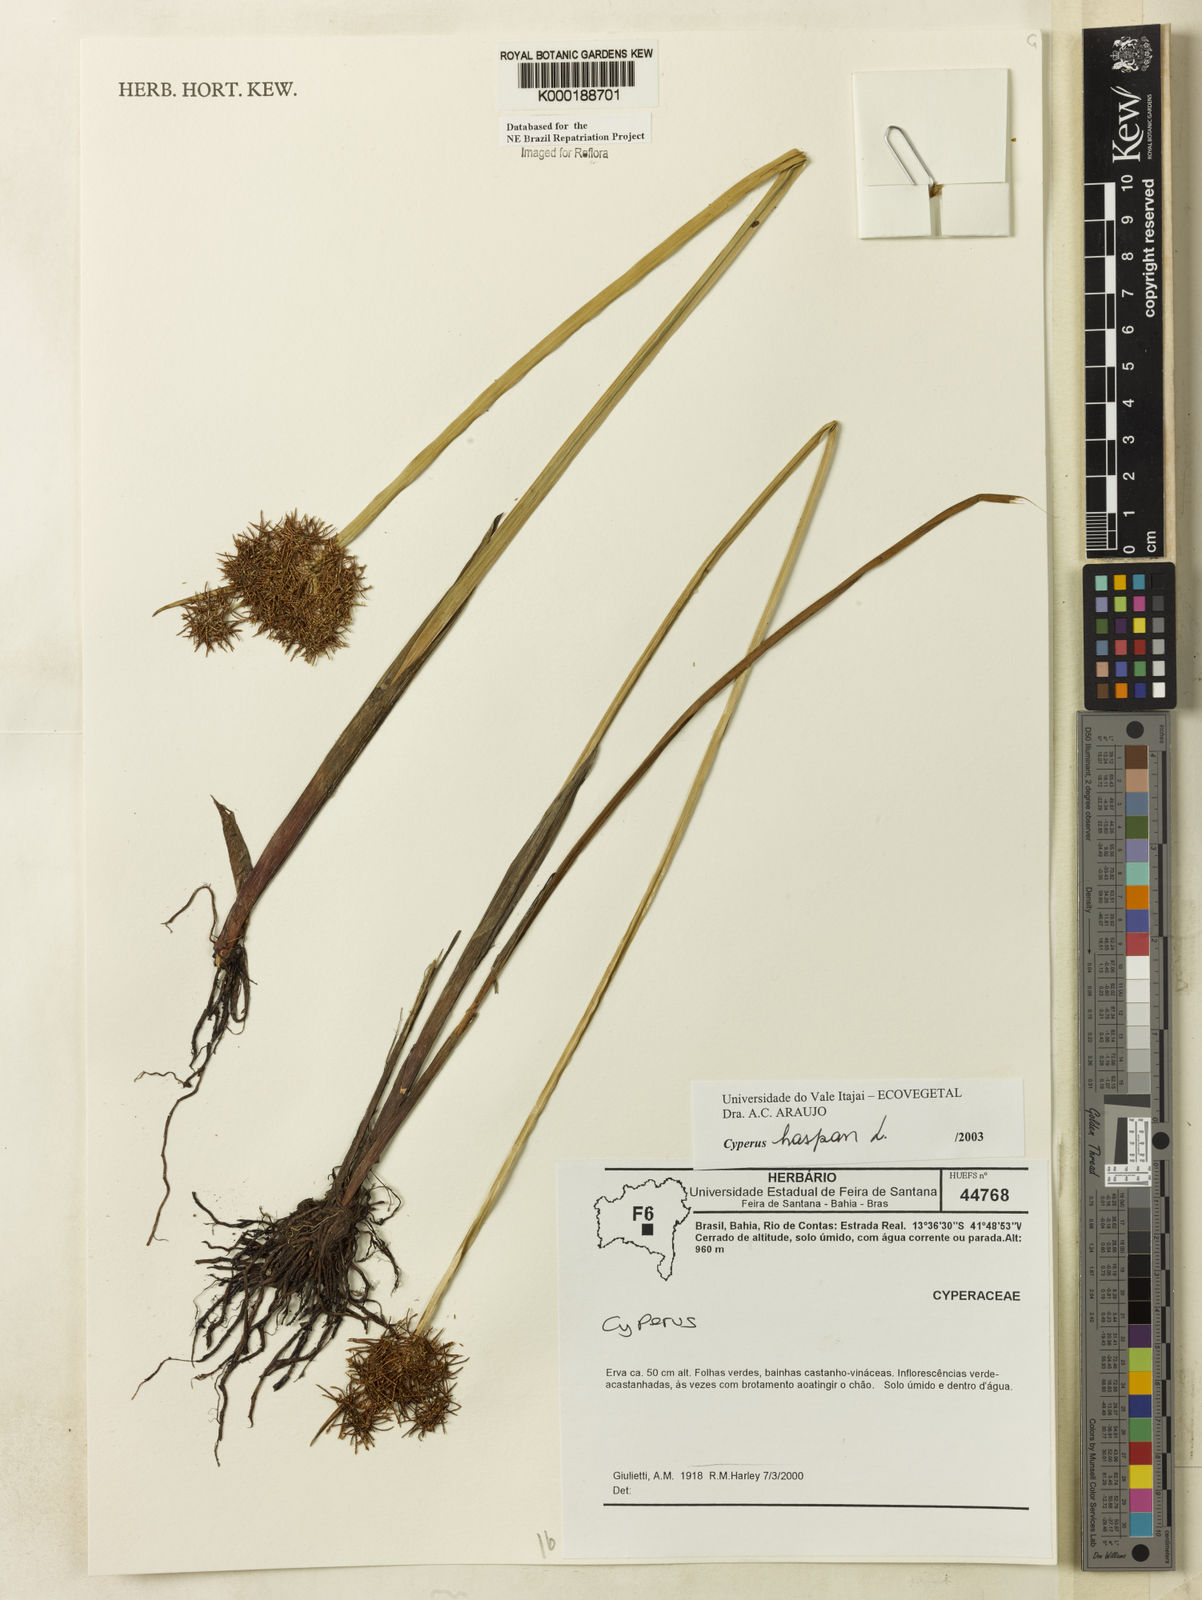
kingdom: Plantae
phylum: Tracheophyta
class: Liliopsida
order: Poales
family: Cyperaceae
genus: Cyperus
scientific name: Cyperus haspan
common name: Haspan flatsedge
